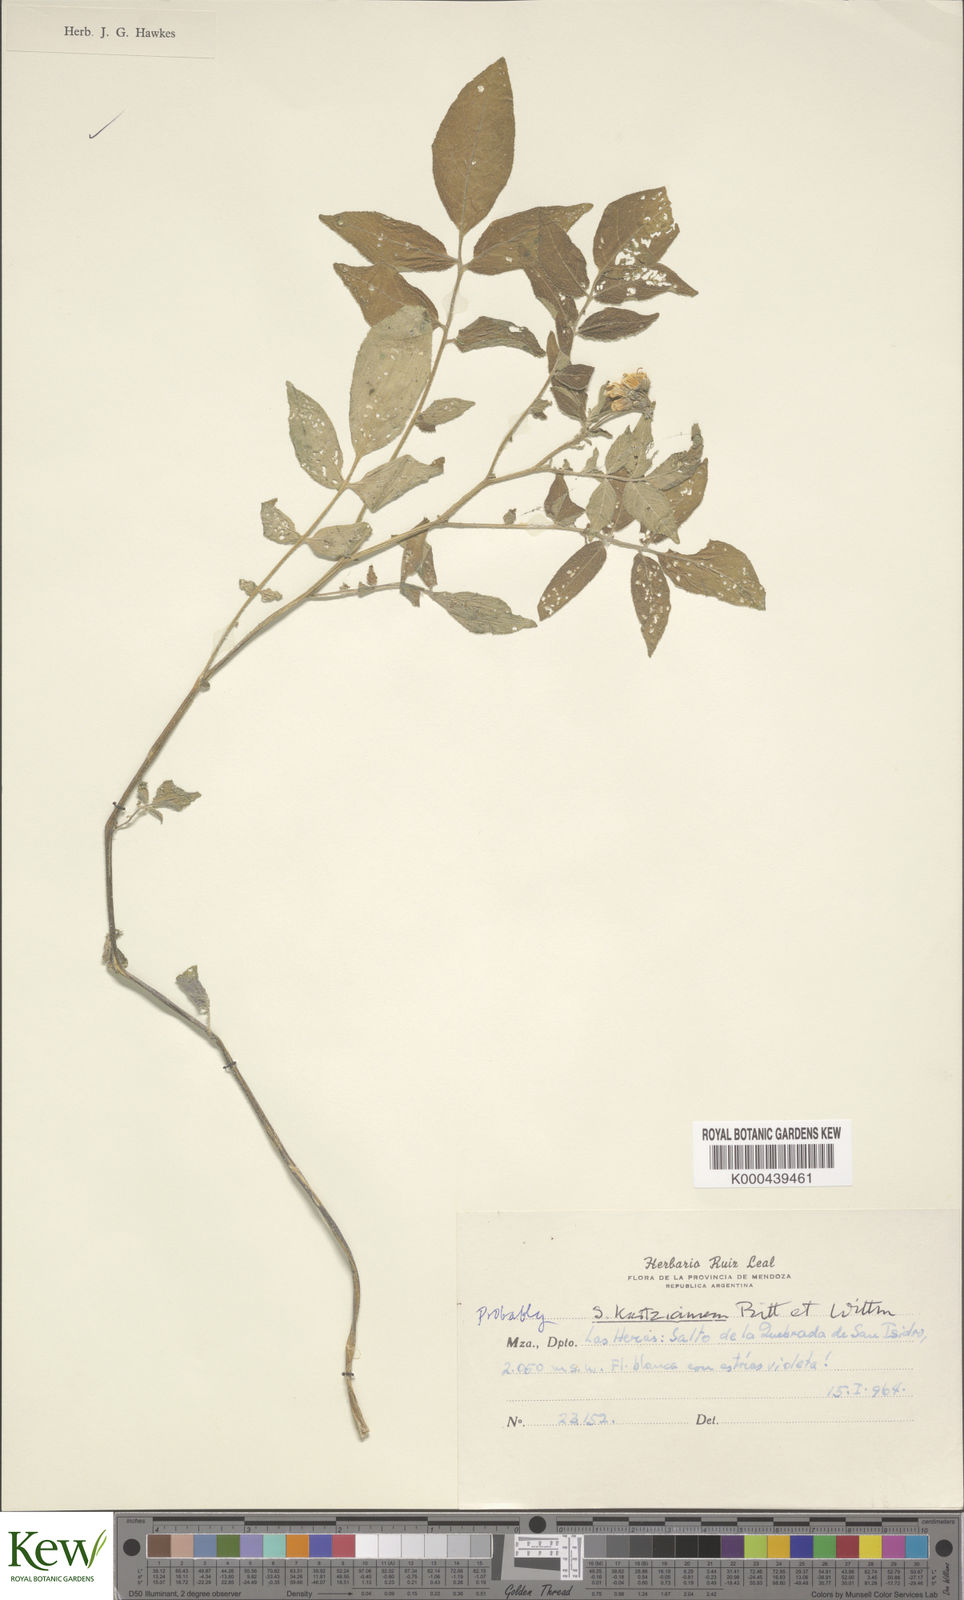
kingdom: Plantae
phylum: Tracheophyta
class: Magnoliopsida
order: Solanales
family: Solanaceae
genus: Solanum
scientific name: Solanum kurtzianum
